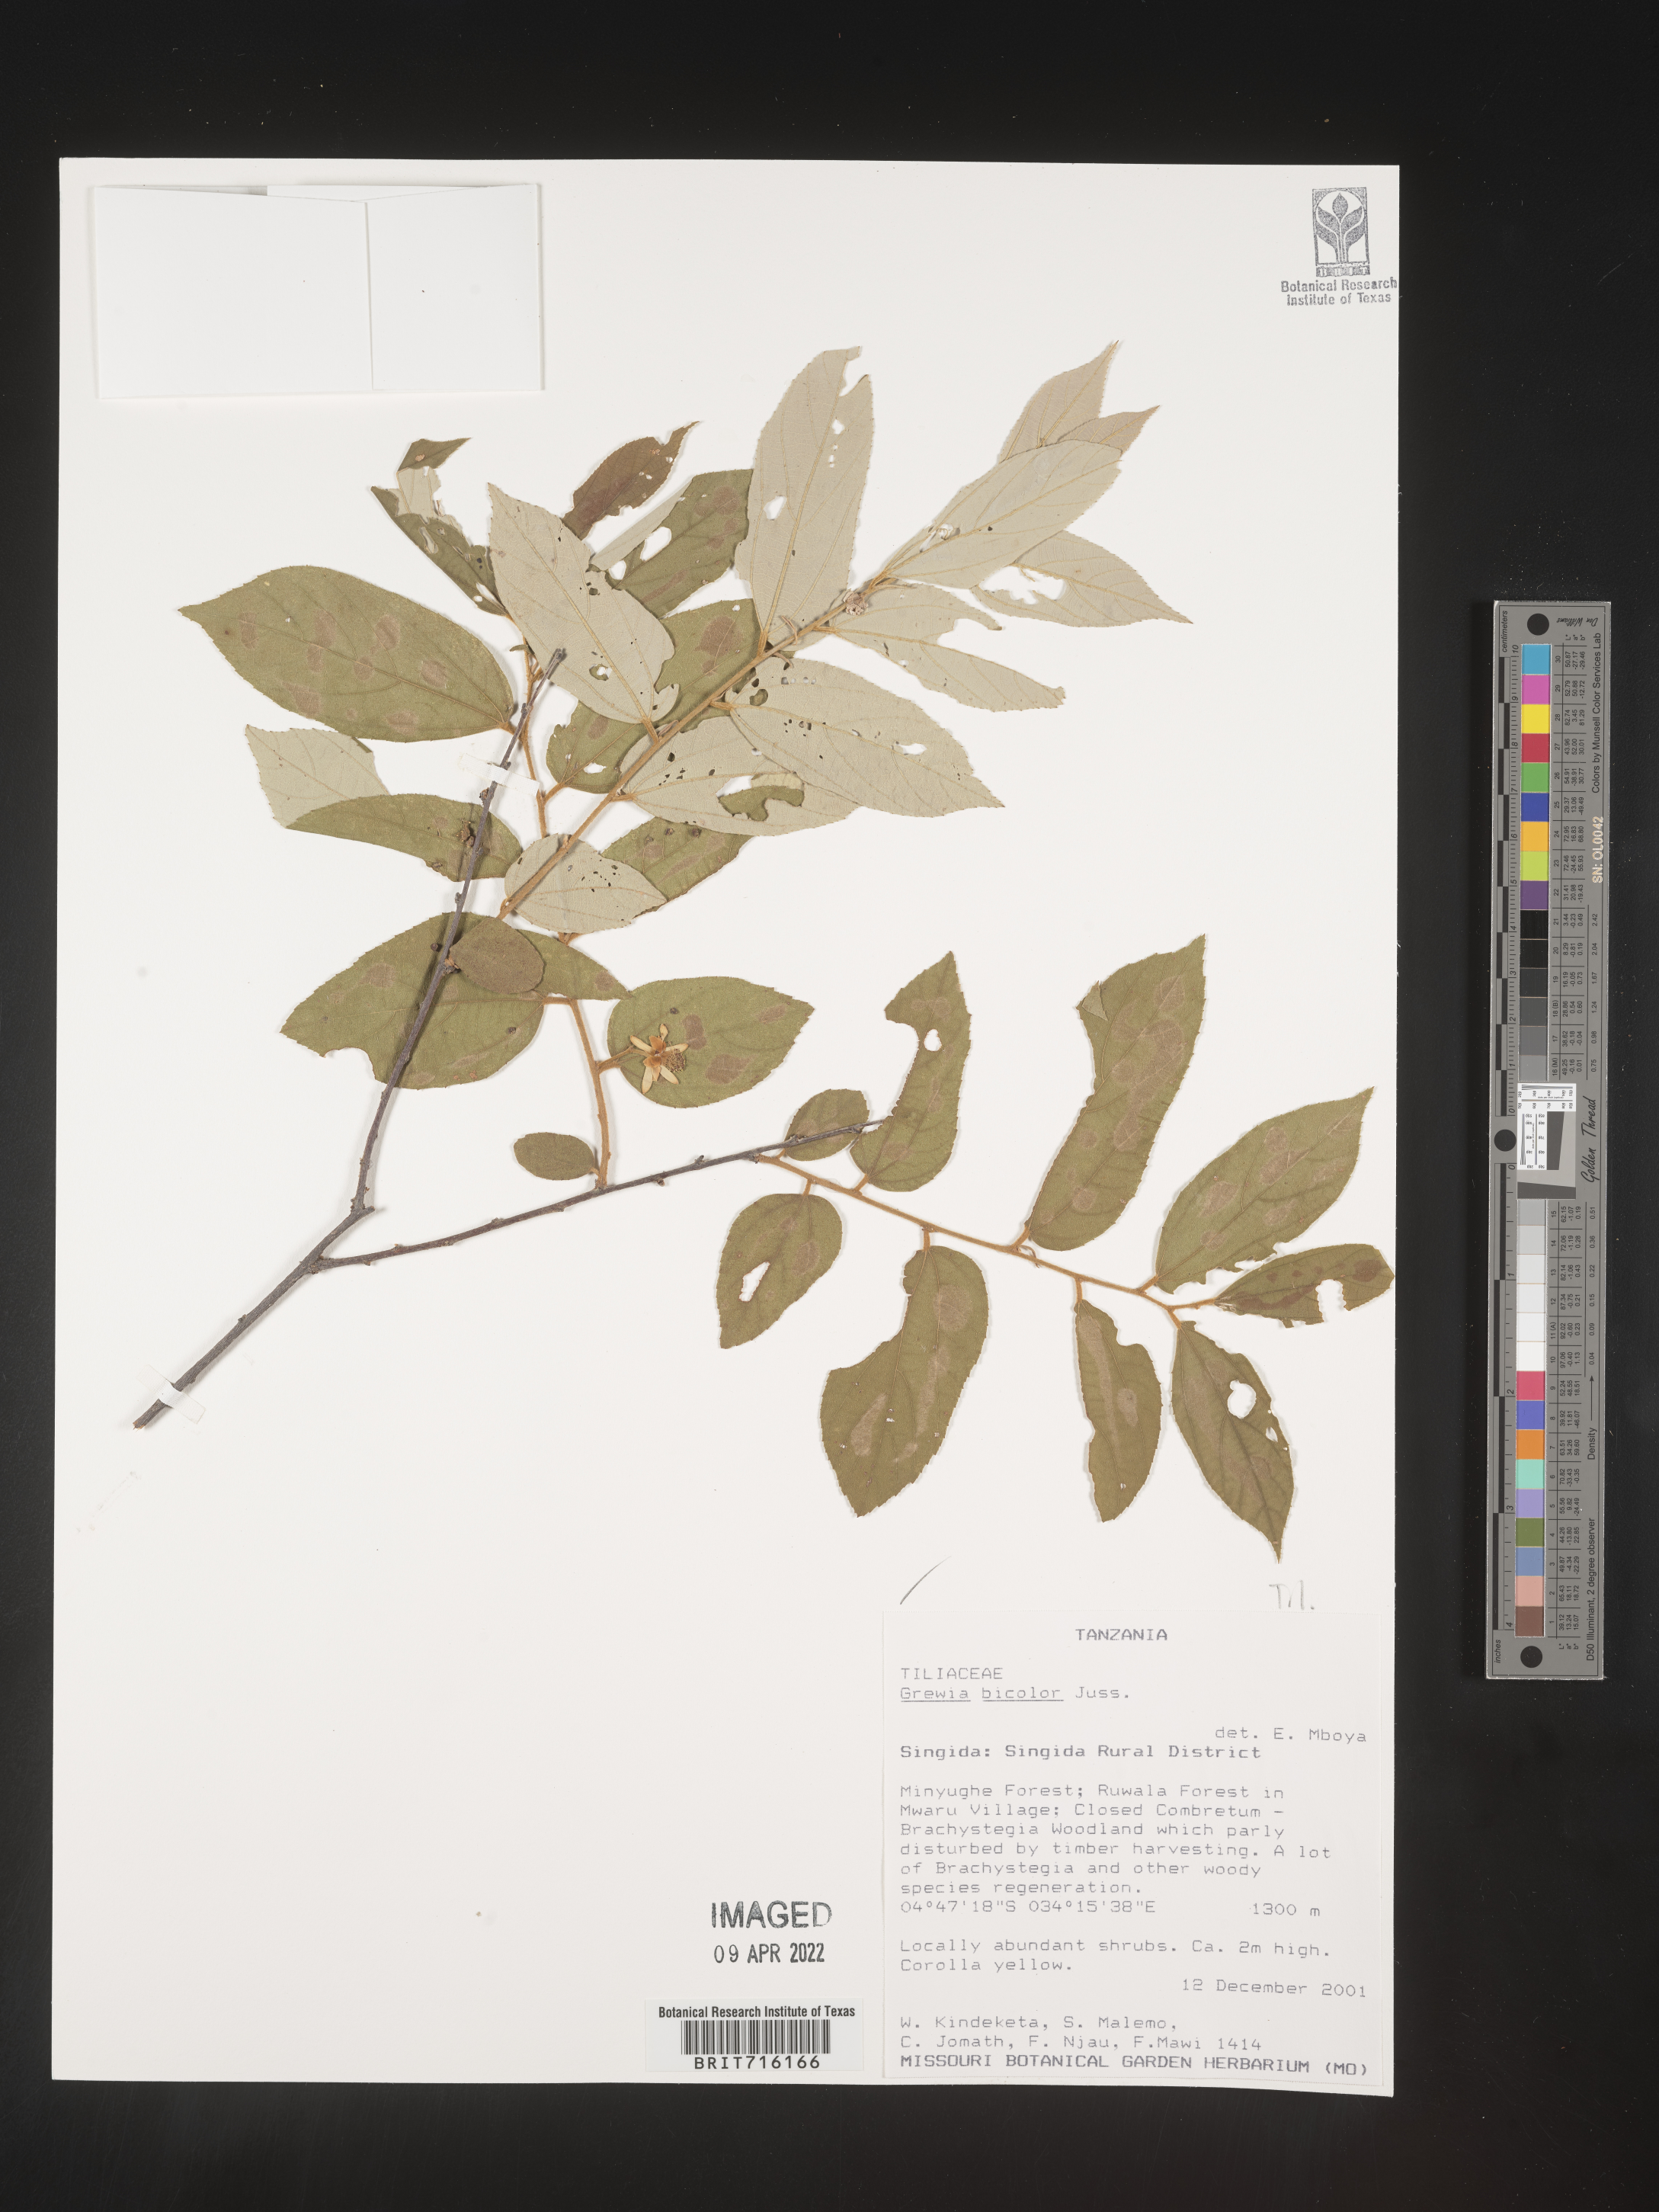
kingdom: Plantae
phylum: Tracheophyta
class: Magnoliopsida
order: Malvales
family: Malvaceae
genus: Grewia
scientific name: Grewia
